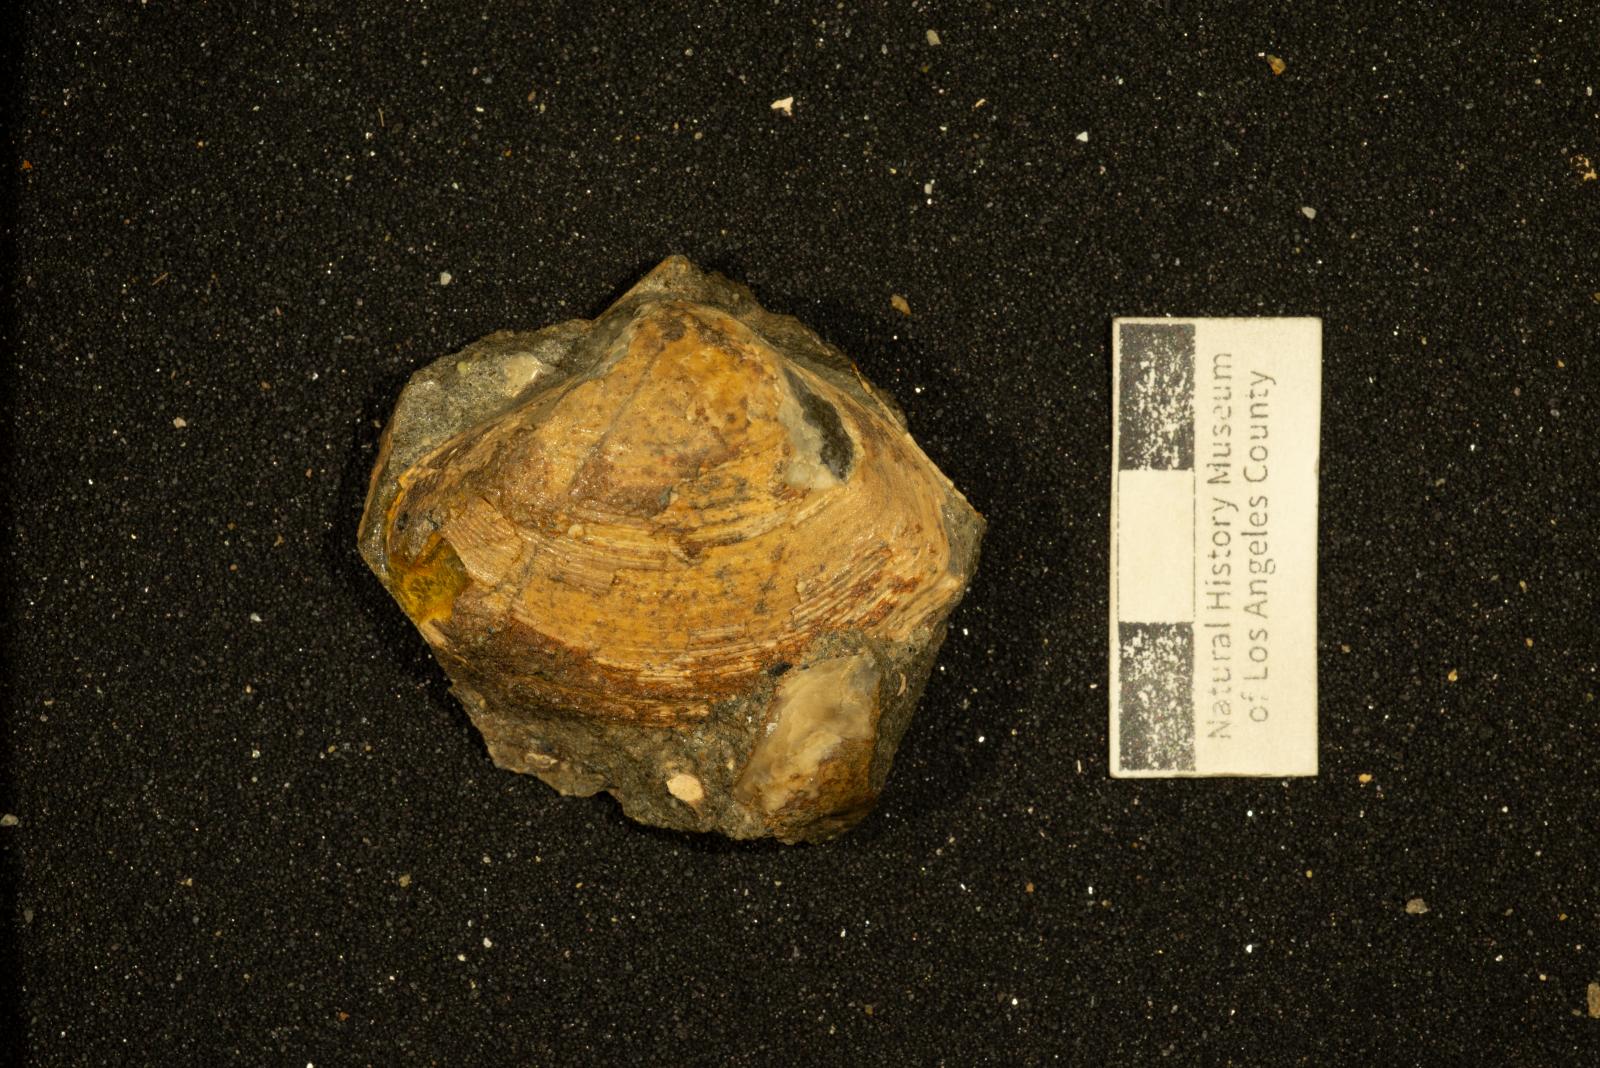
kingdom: Animalia
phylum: Mollusca
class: Bivalvia
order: Venerida
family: Mactridae
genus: Cymbophora
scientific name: Cymbophora Mactra gabbiana
